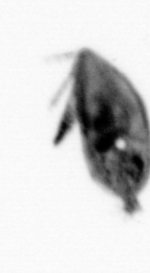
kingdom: Animalia
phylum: Arthropoda
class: Maxillopoda
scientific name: Maxillopoda
